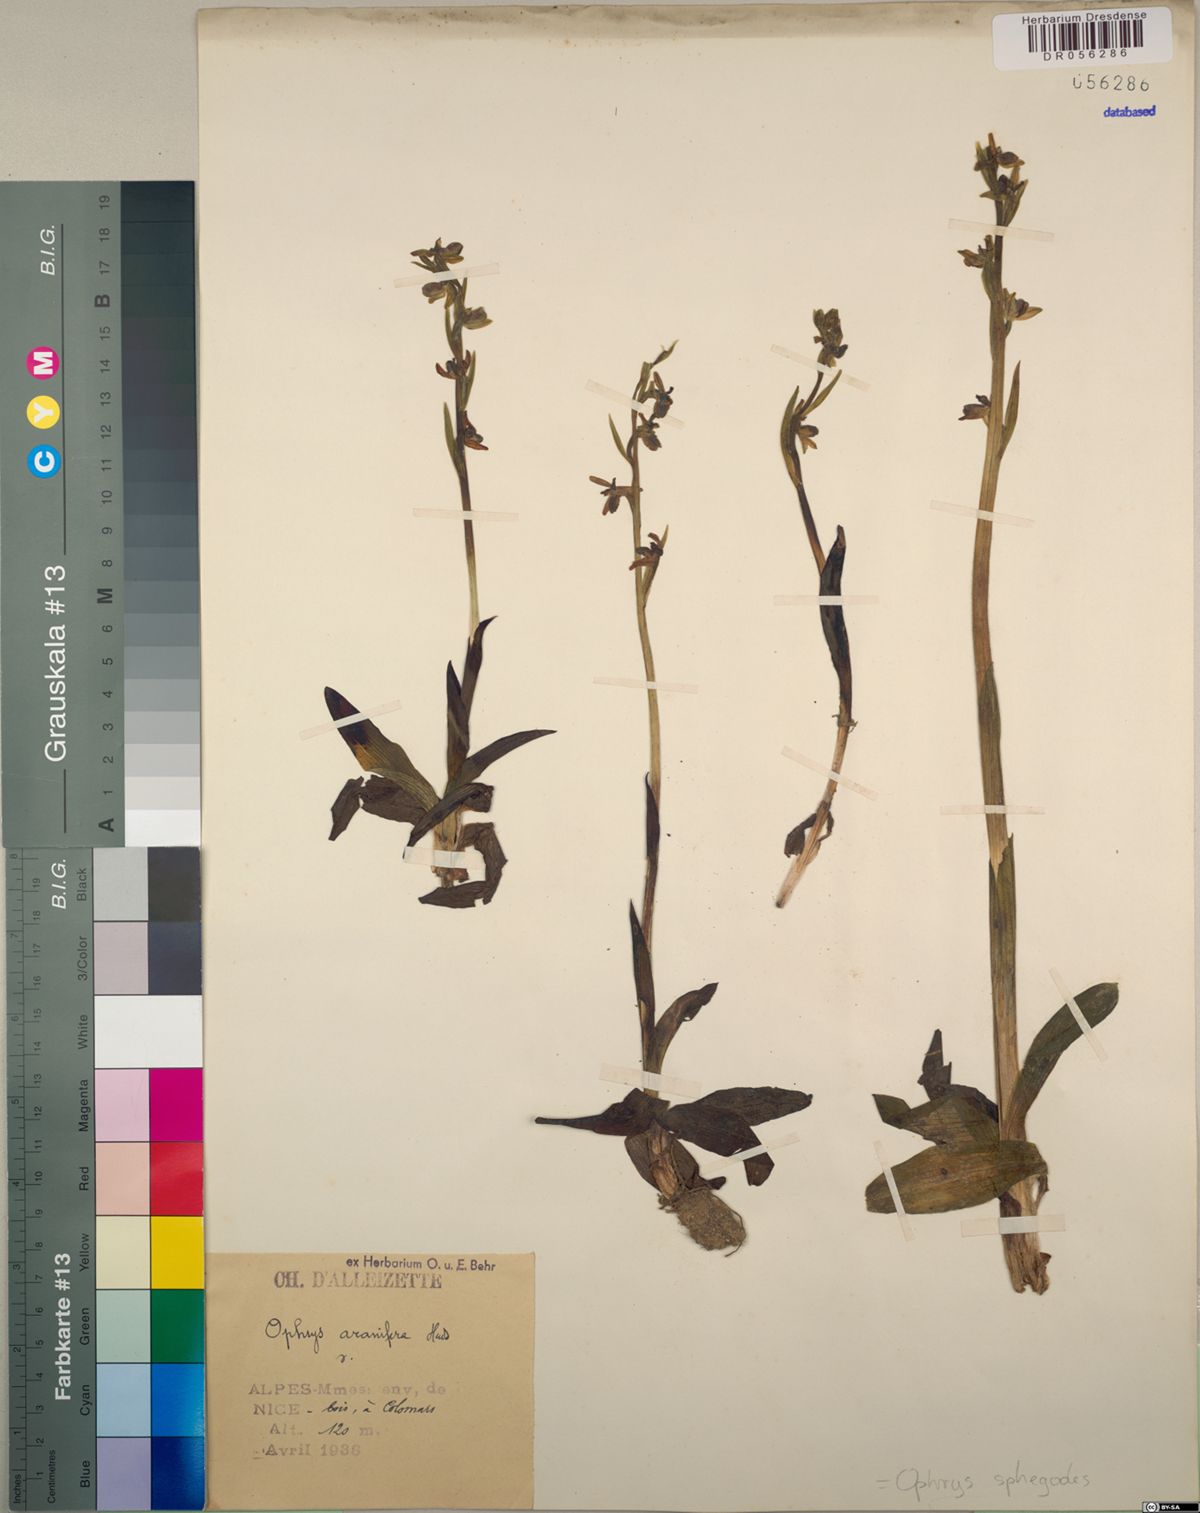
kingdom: Plantae
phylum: Tracheophyta
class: Liliopsida
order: Asparagales
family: Orchidaceae
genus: Ophrys
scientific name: Ophrys sphegodes
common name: Early spider-orchid
